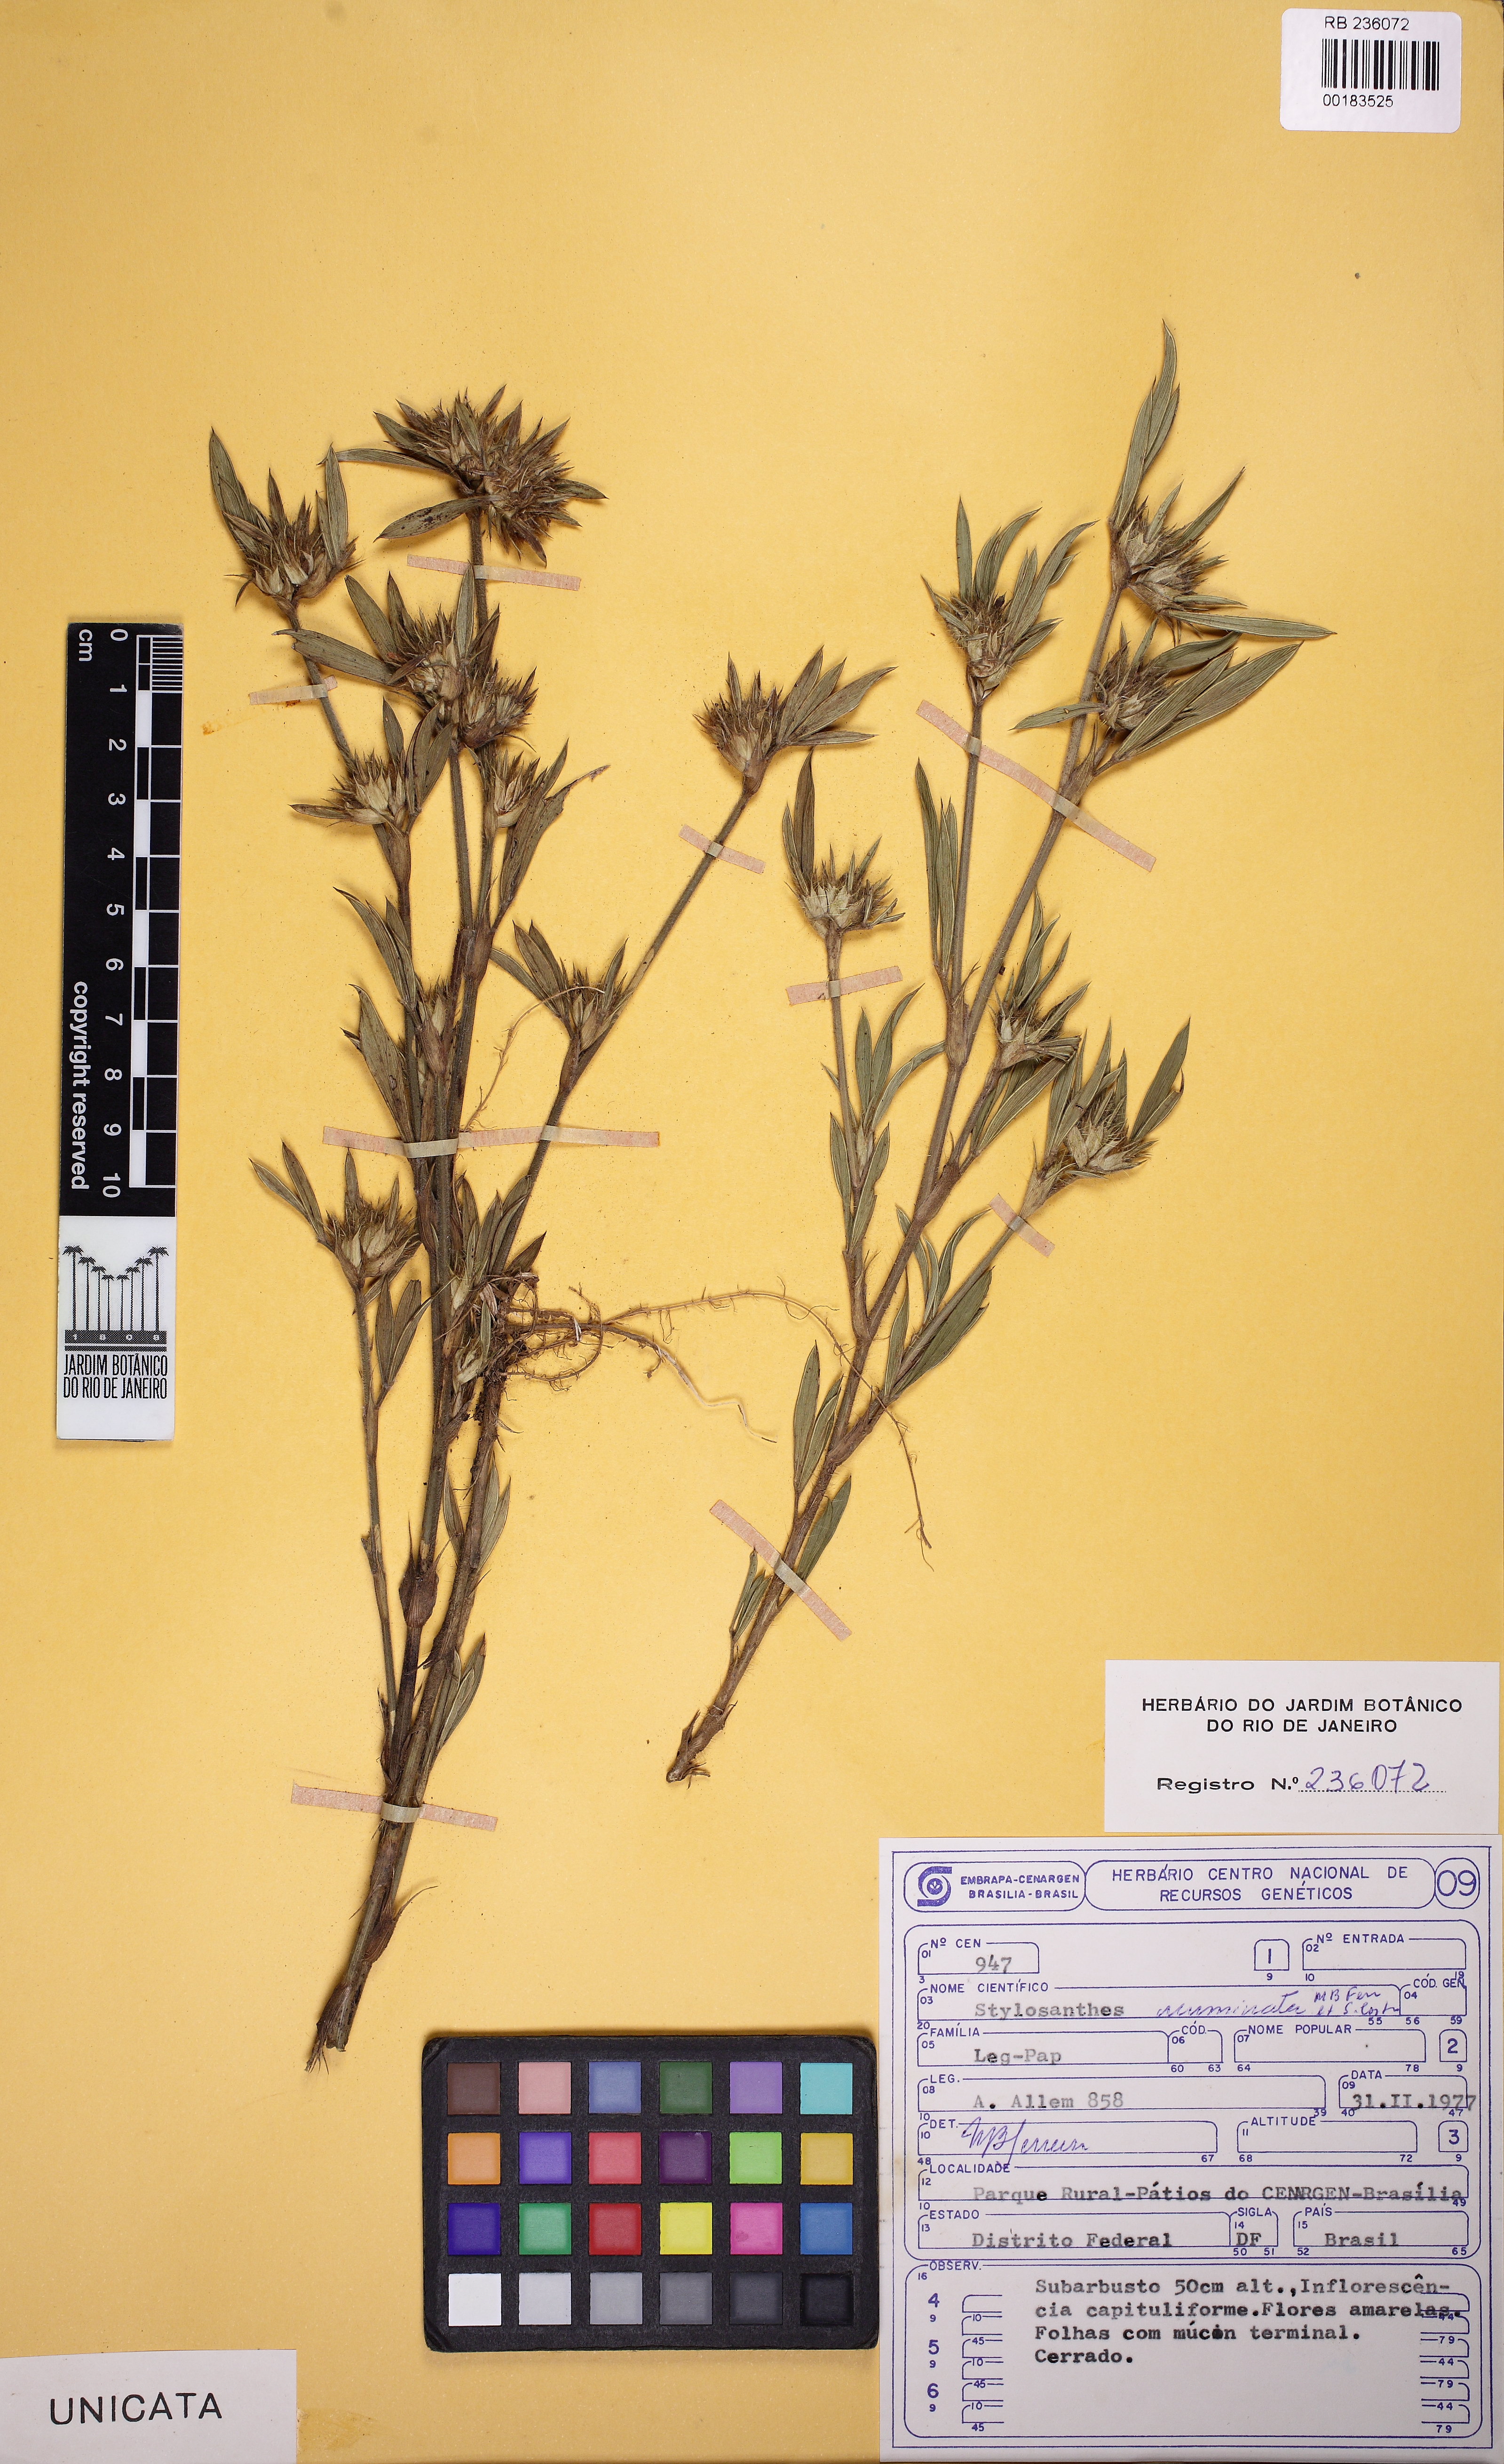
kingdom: Plantae
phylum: Tracheophyta
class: Magnoliopsida
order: Fabales
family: Fabaceae
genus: Stylosanthes
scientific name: Stylosanthes guianensis
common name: Pencil flower
